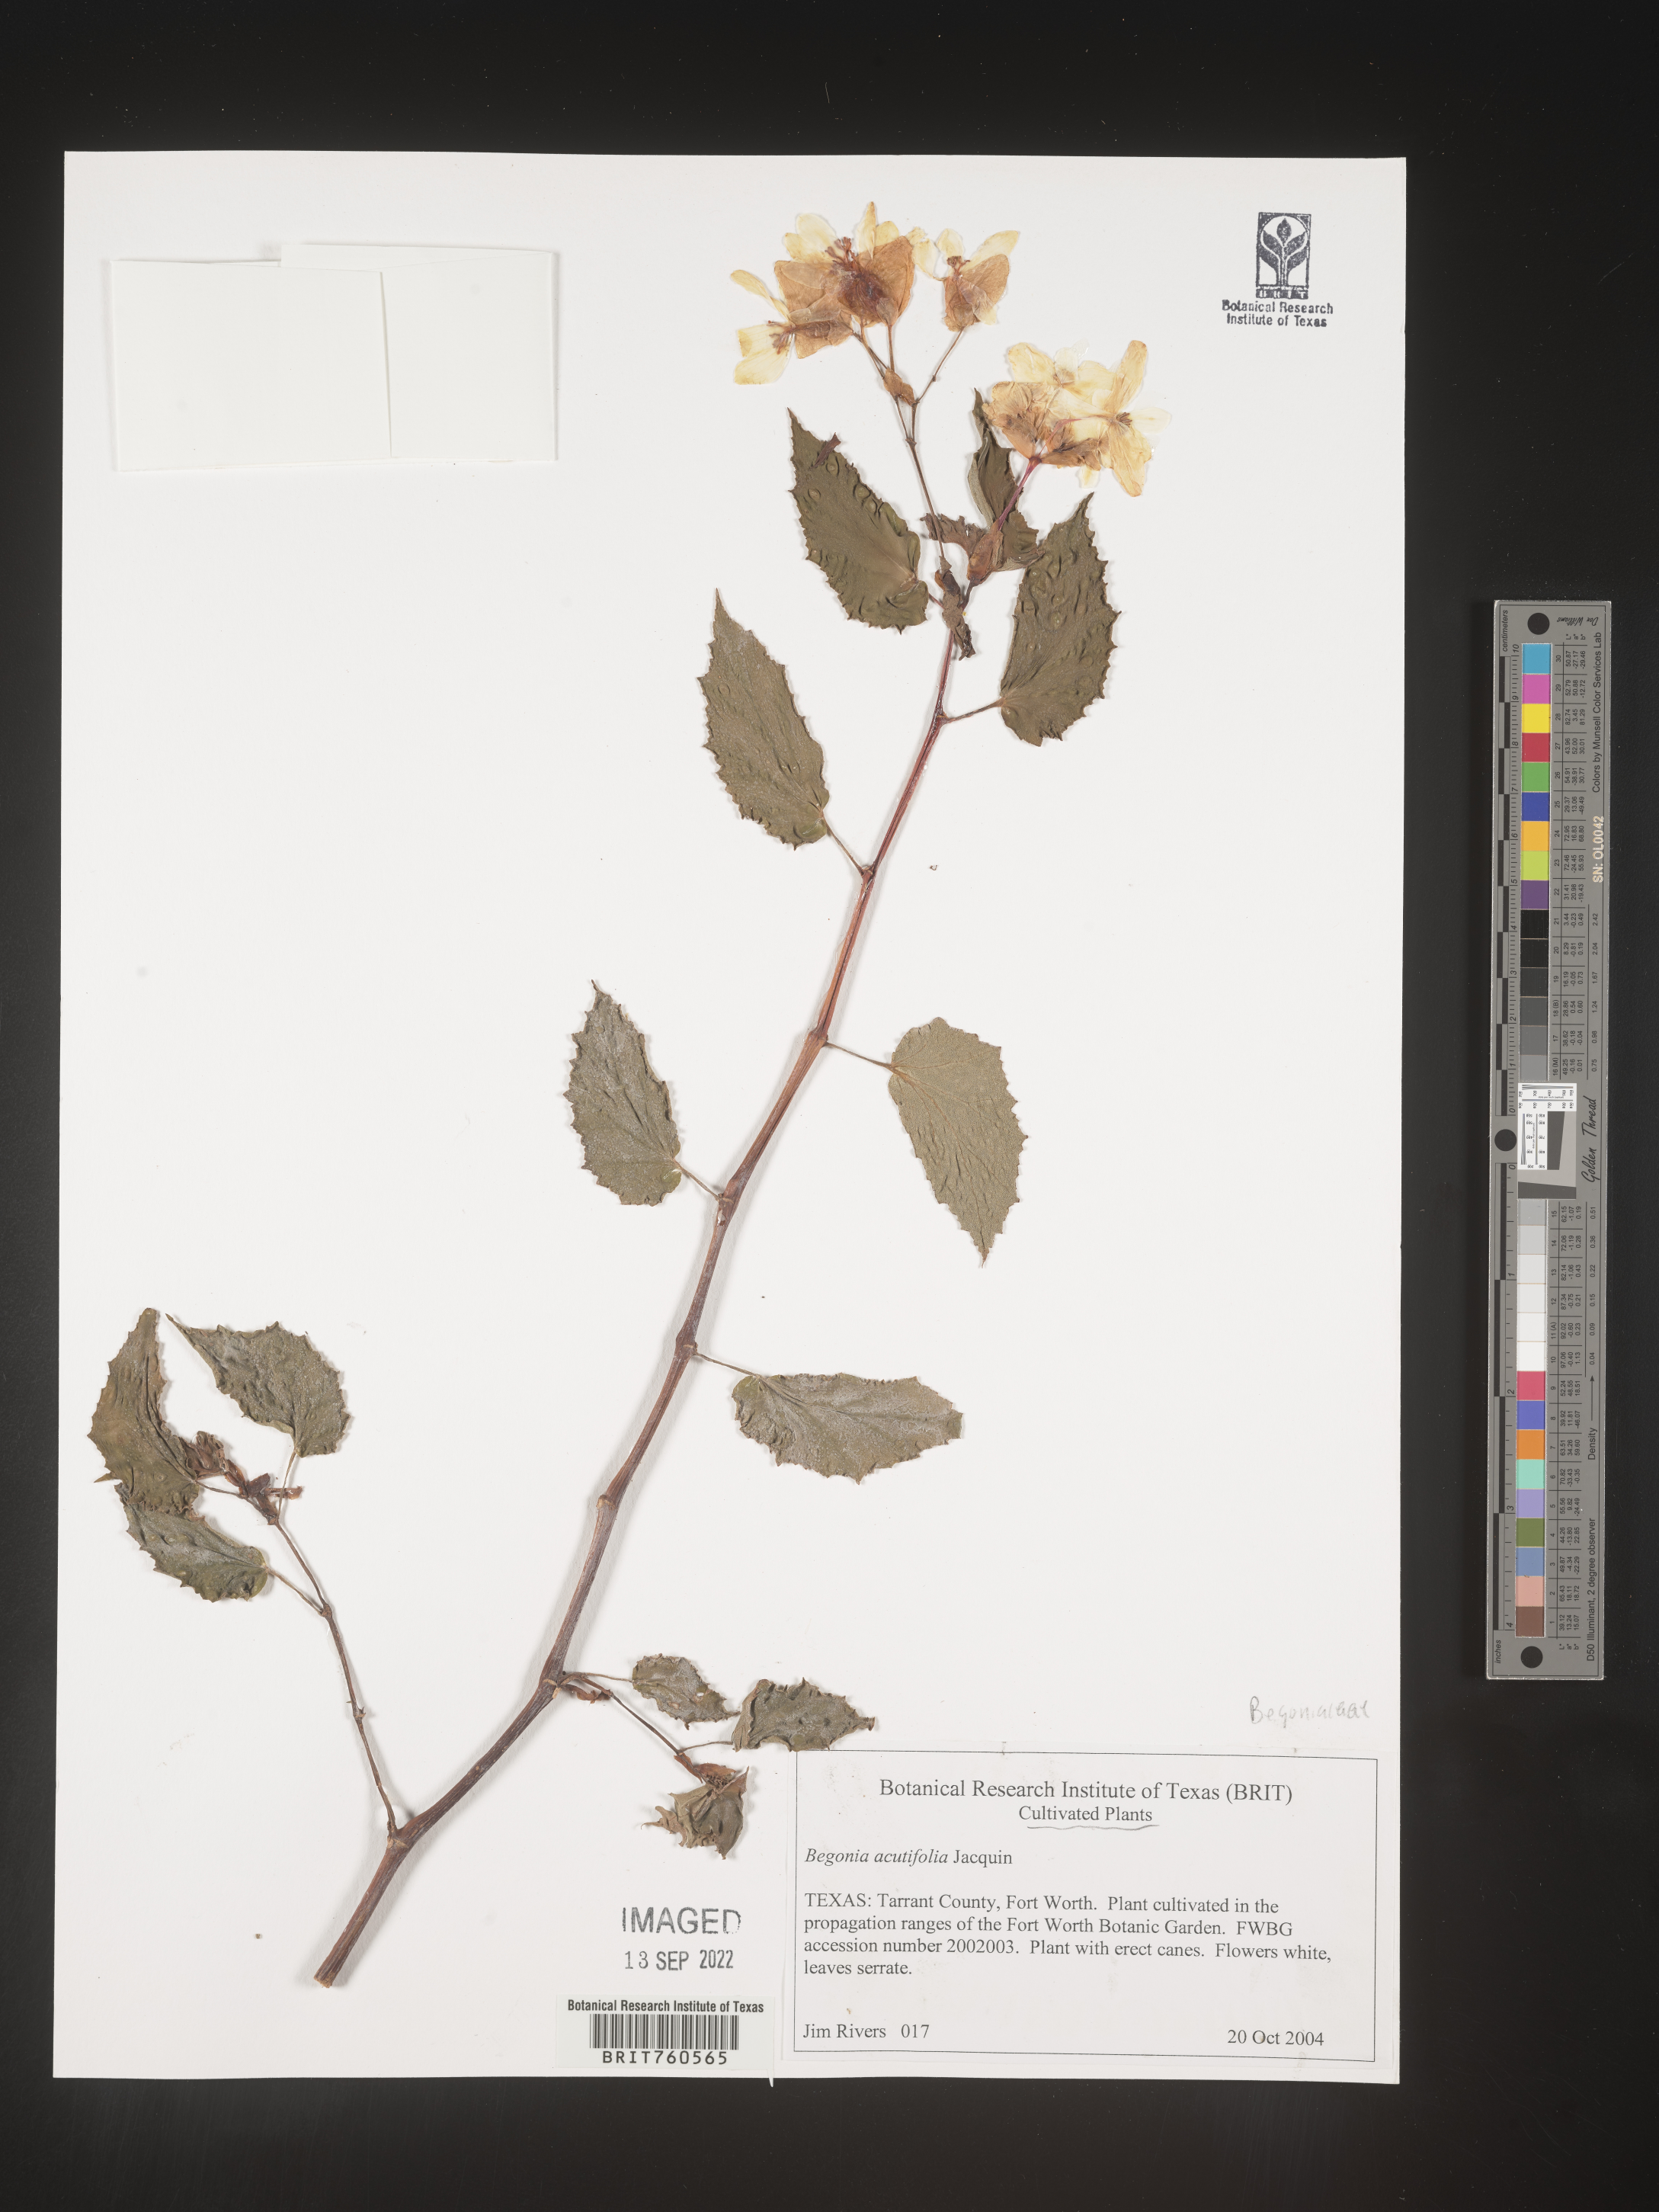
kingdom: Plantae
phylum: Tracheophyta
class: Magnoliopsida
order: Cucurbitales
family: Begoniaceae
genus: Begonia
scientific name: Begonia
